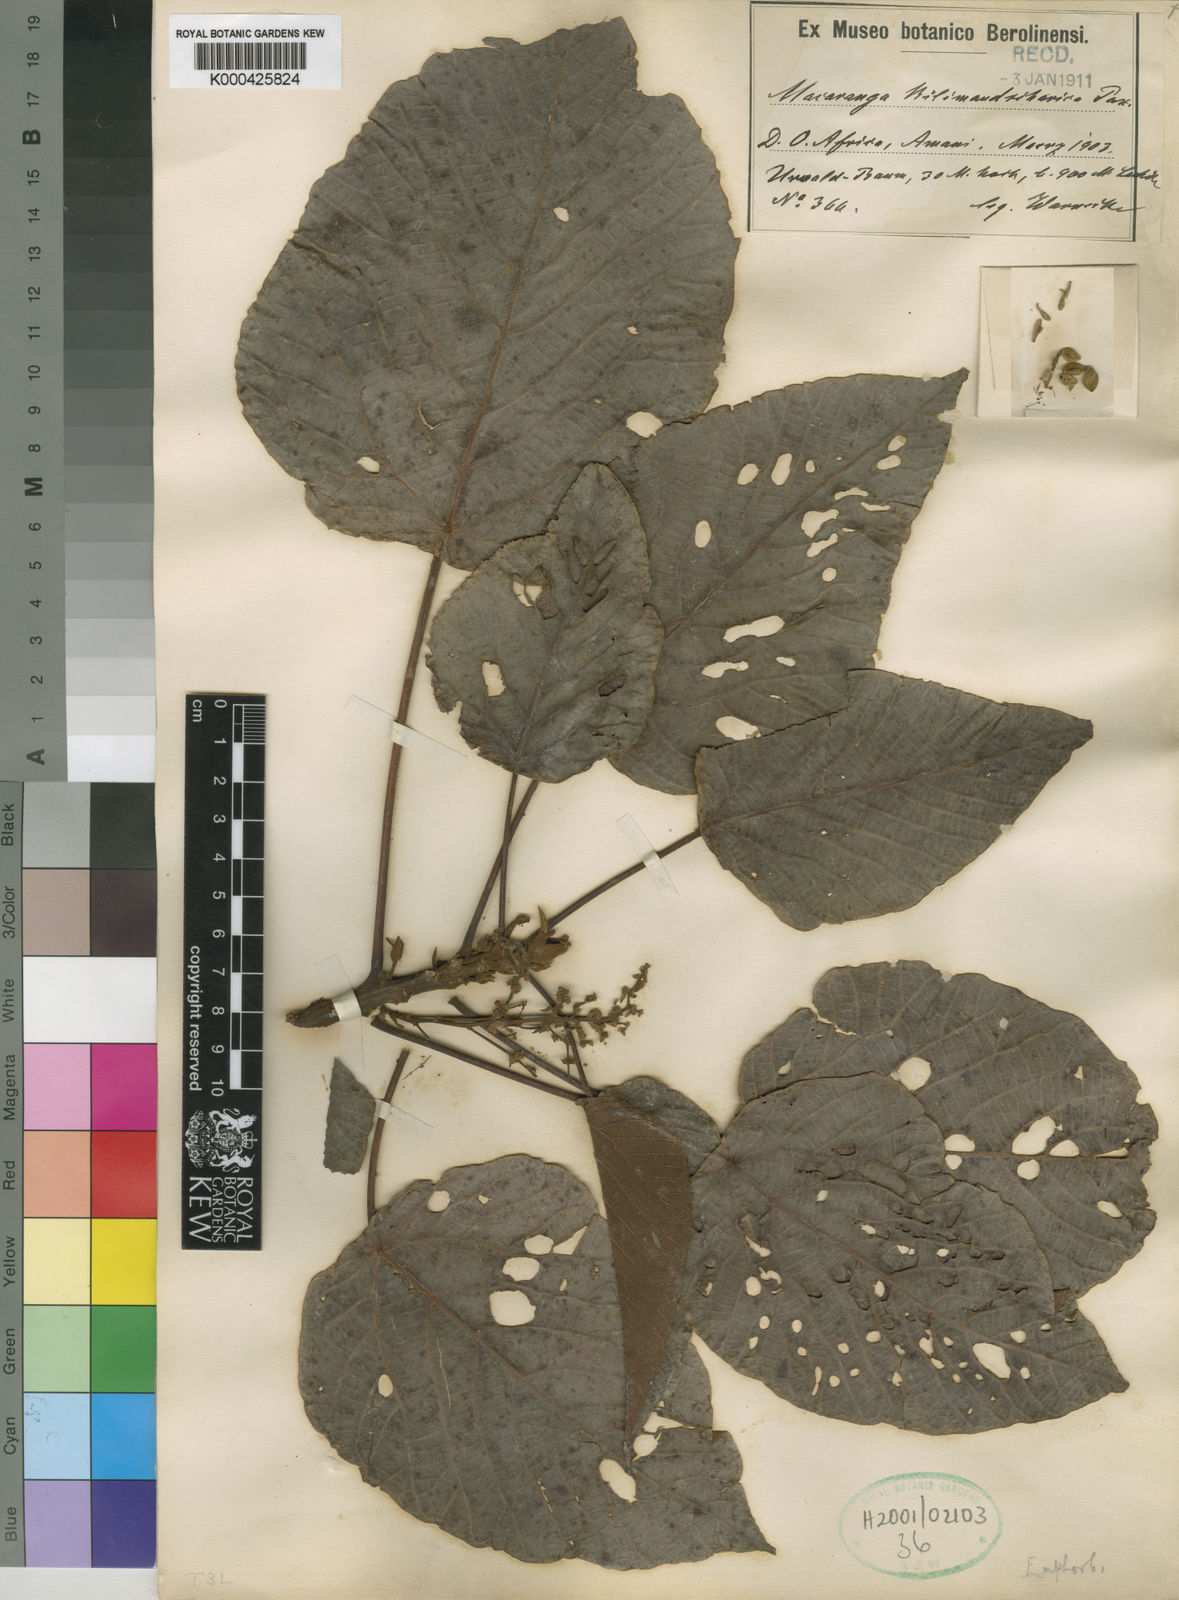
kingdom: Plantae
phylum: Tracheophyta
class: Magnoliopsida
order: Malpighiales
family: Euphorbiaceae
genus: Macaranga
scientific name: Macaranga capensis
